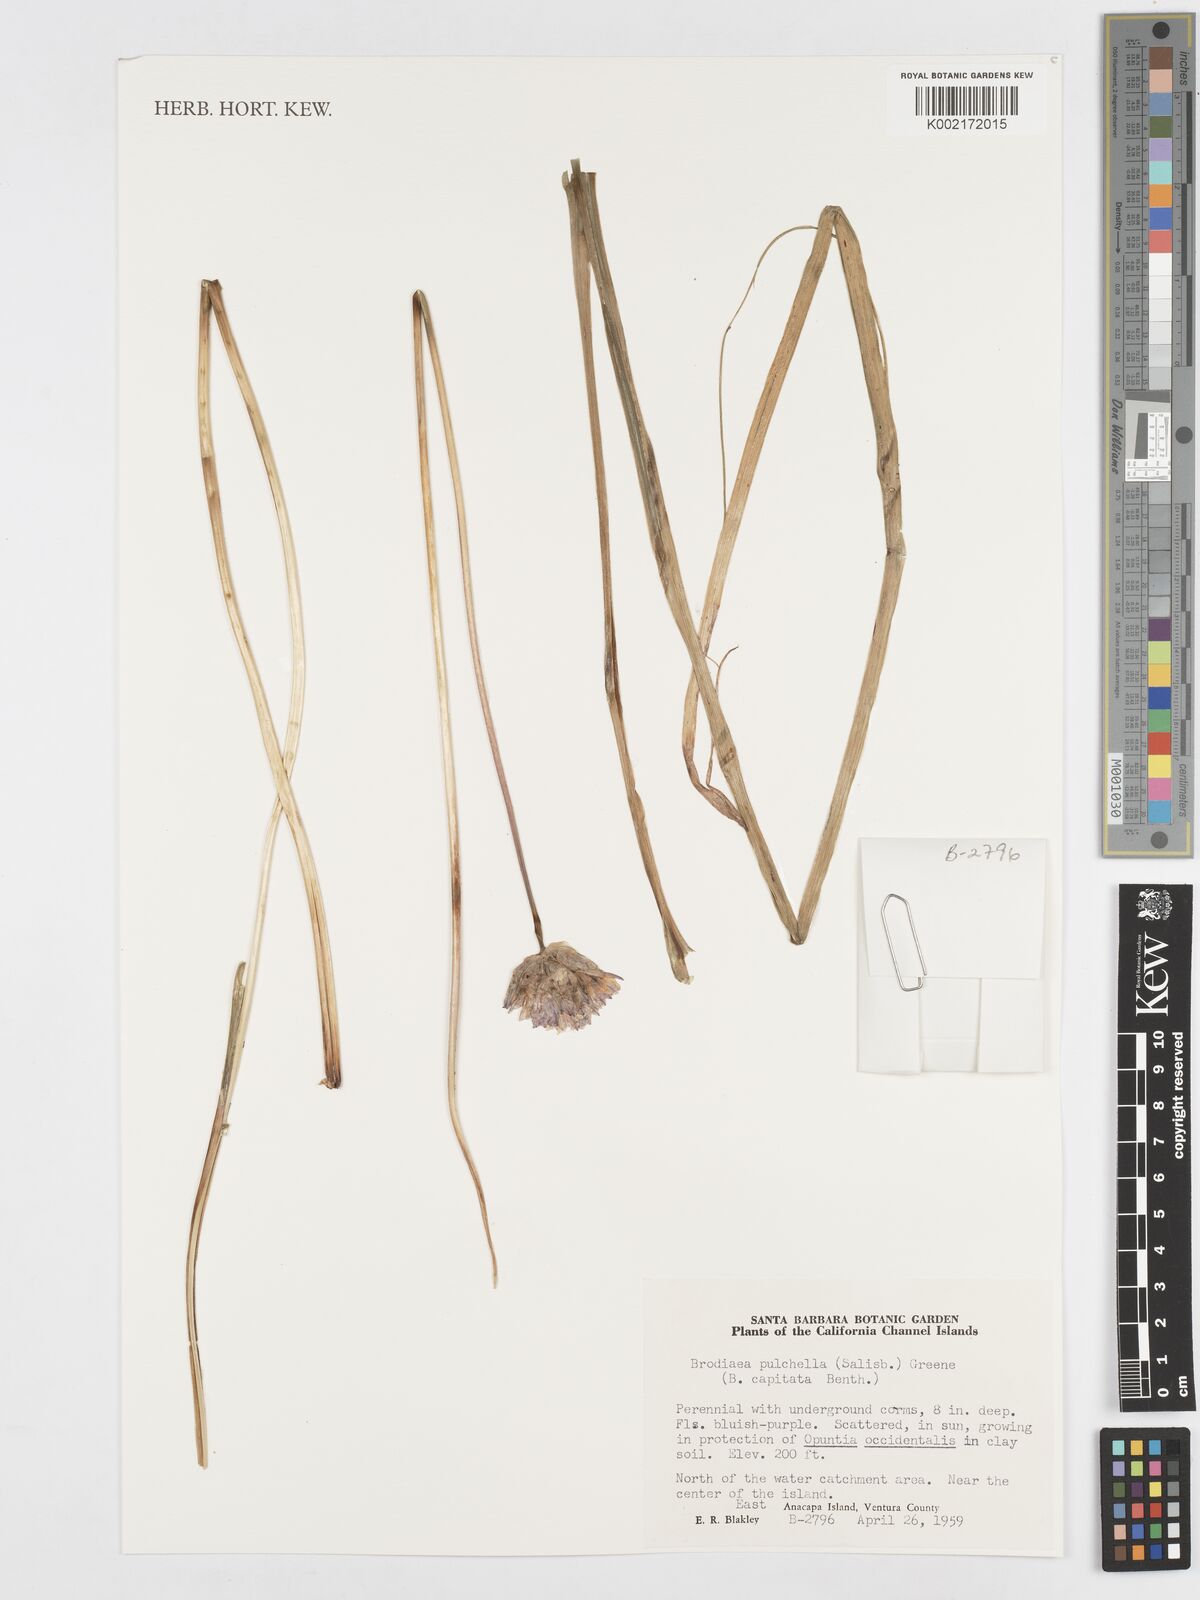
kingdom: Plantae
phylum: Tracheophyta
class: Liliopsida
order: Asparagales
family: Asparagaceae
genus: Dichelostemma
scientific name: Dichelostemma congestum
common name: Fork-tooth ookow
